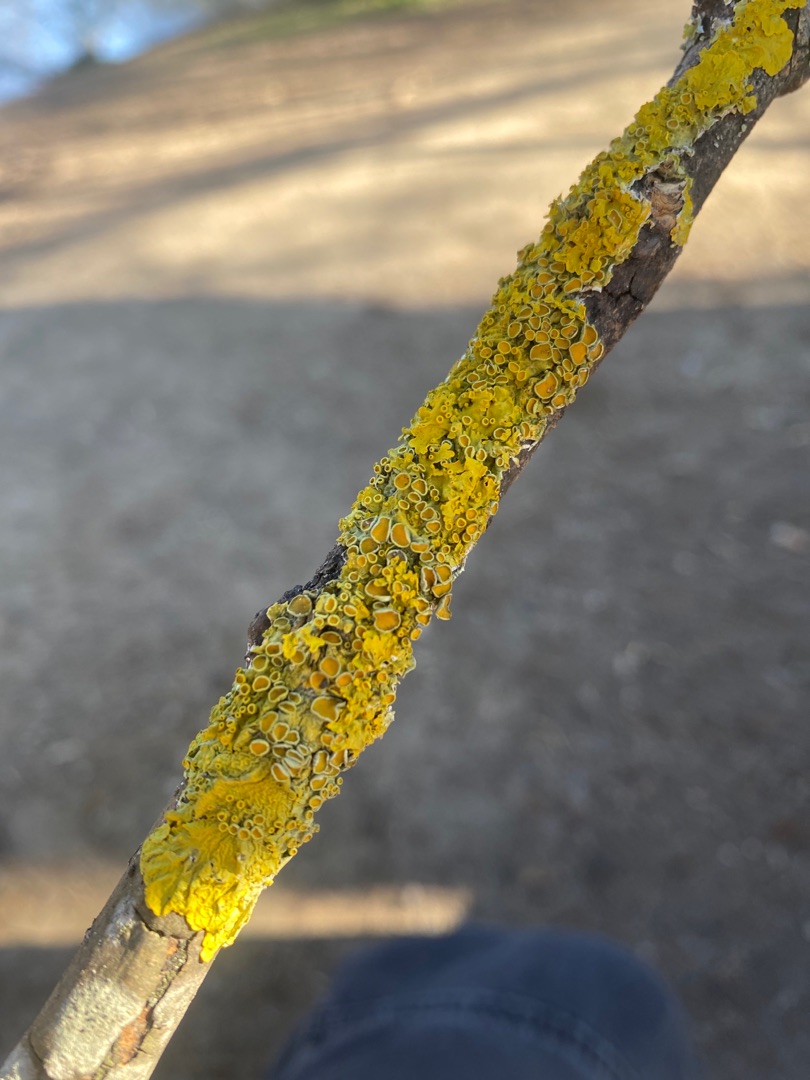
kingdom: Fungi
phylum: Ascomycota
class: Lecanoromycetes
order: Teloschistales
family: Teloschistaceae
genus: Xanthoria
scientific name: Xanthoria parietina
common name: Almindelig væggelav
